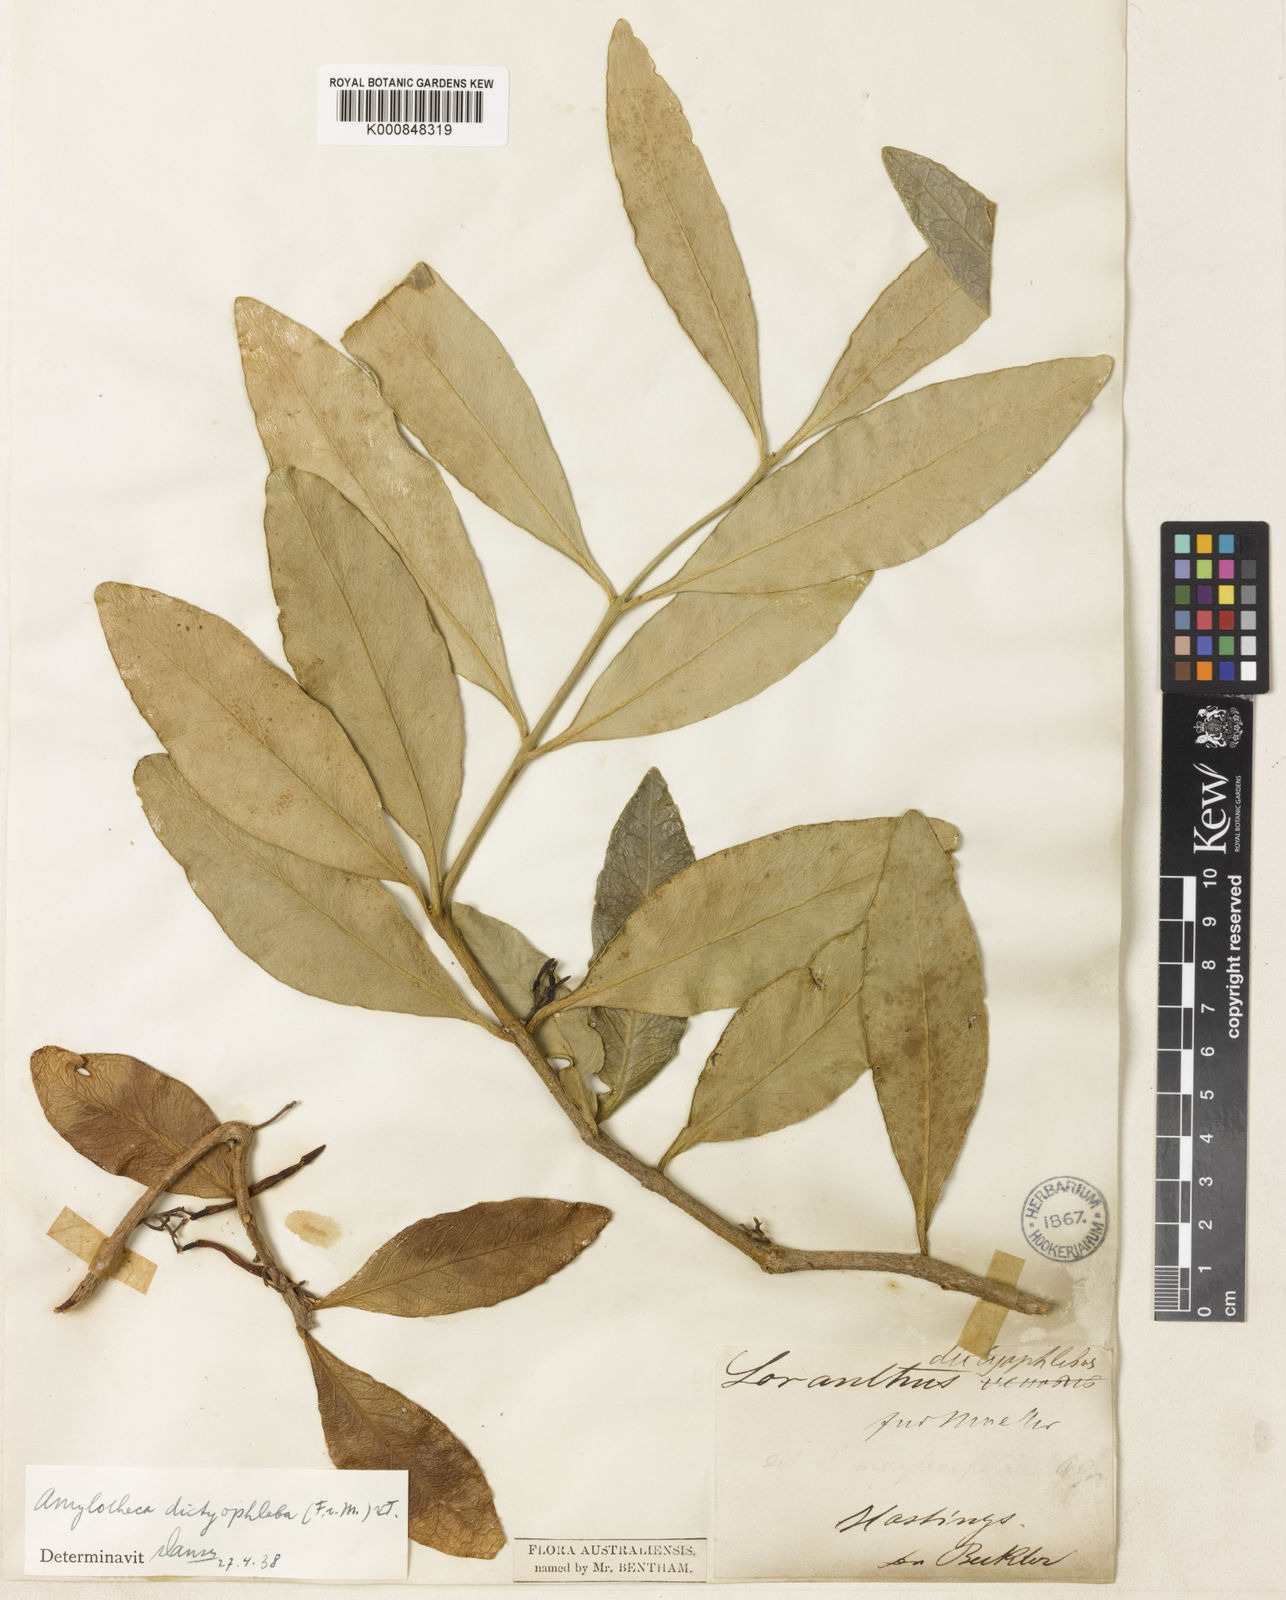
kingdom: Plantae
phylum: Tracheophyta
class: Magnoliopsida
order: Santalales
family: Loranthaceae
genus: Amylotheca
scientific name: Amylotheca dictyophleba
